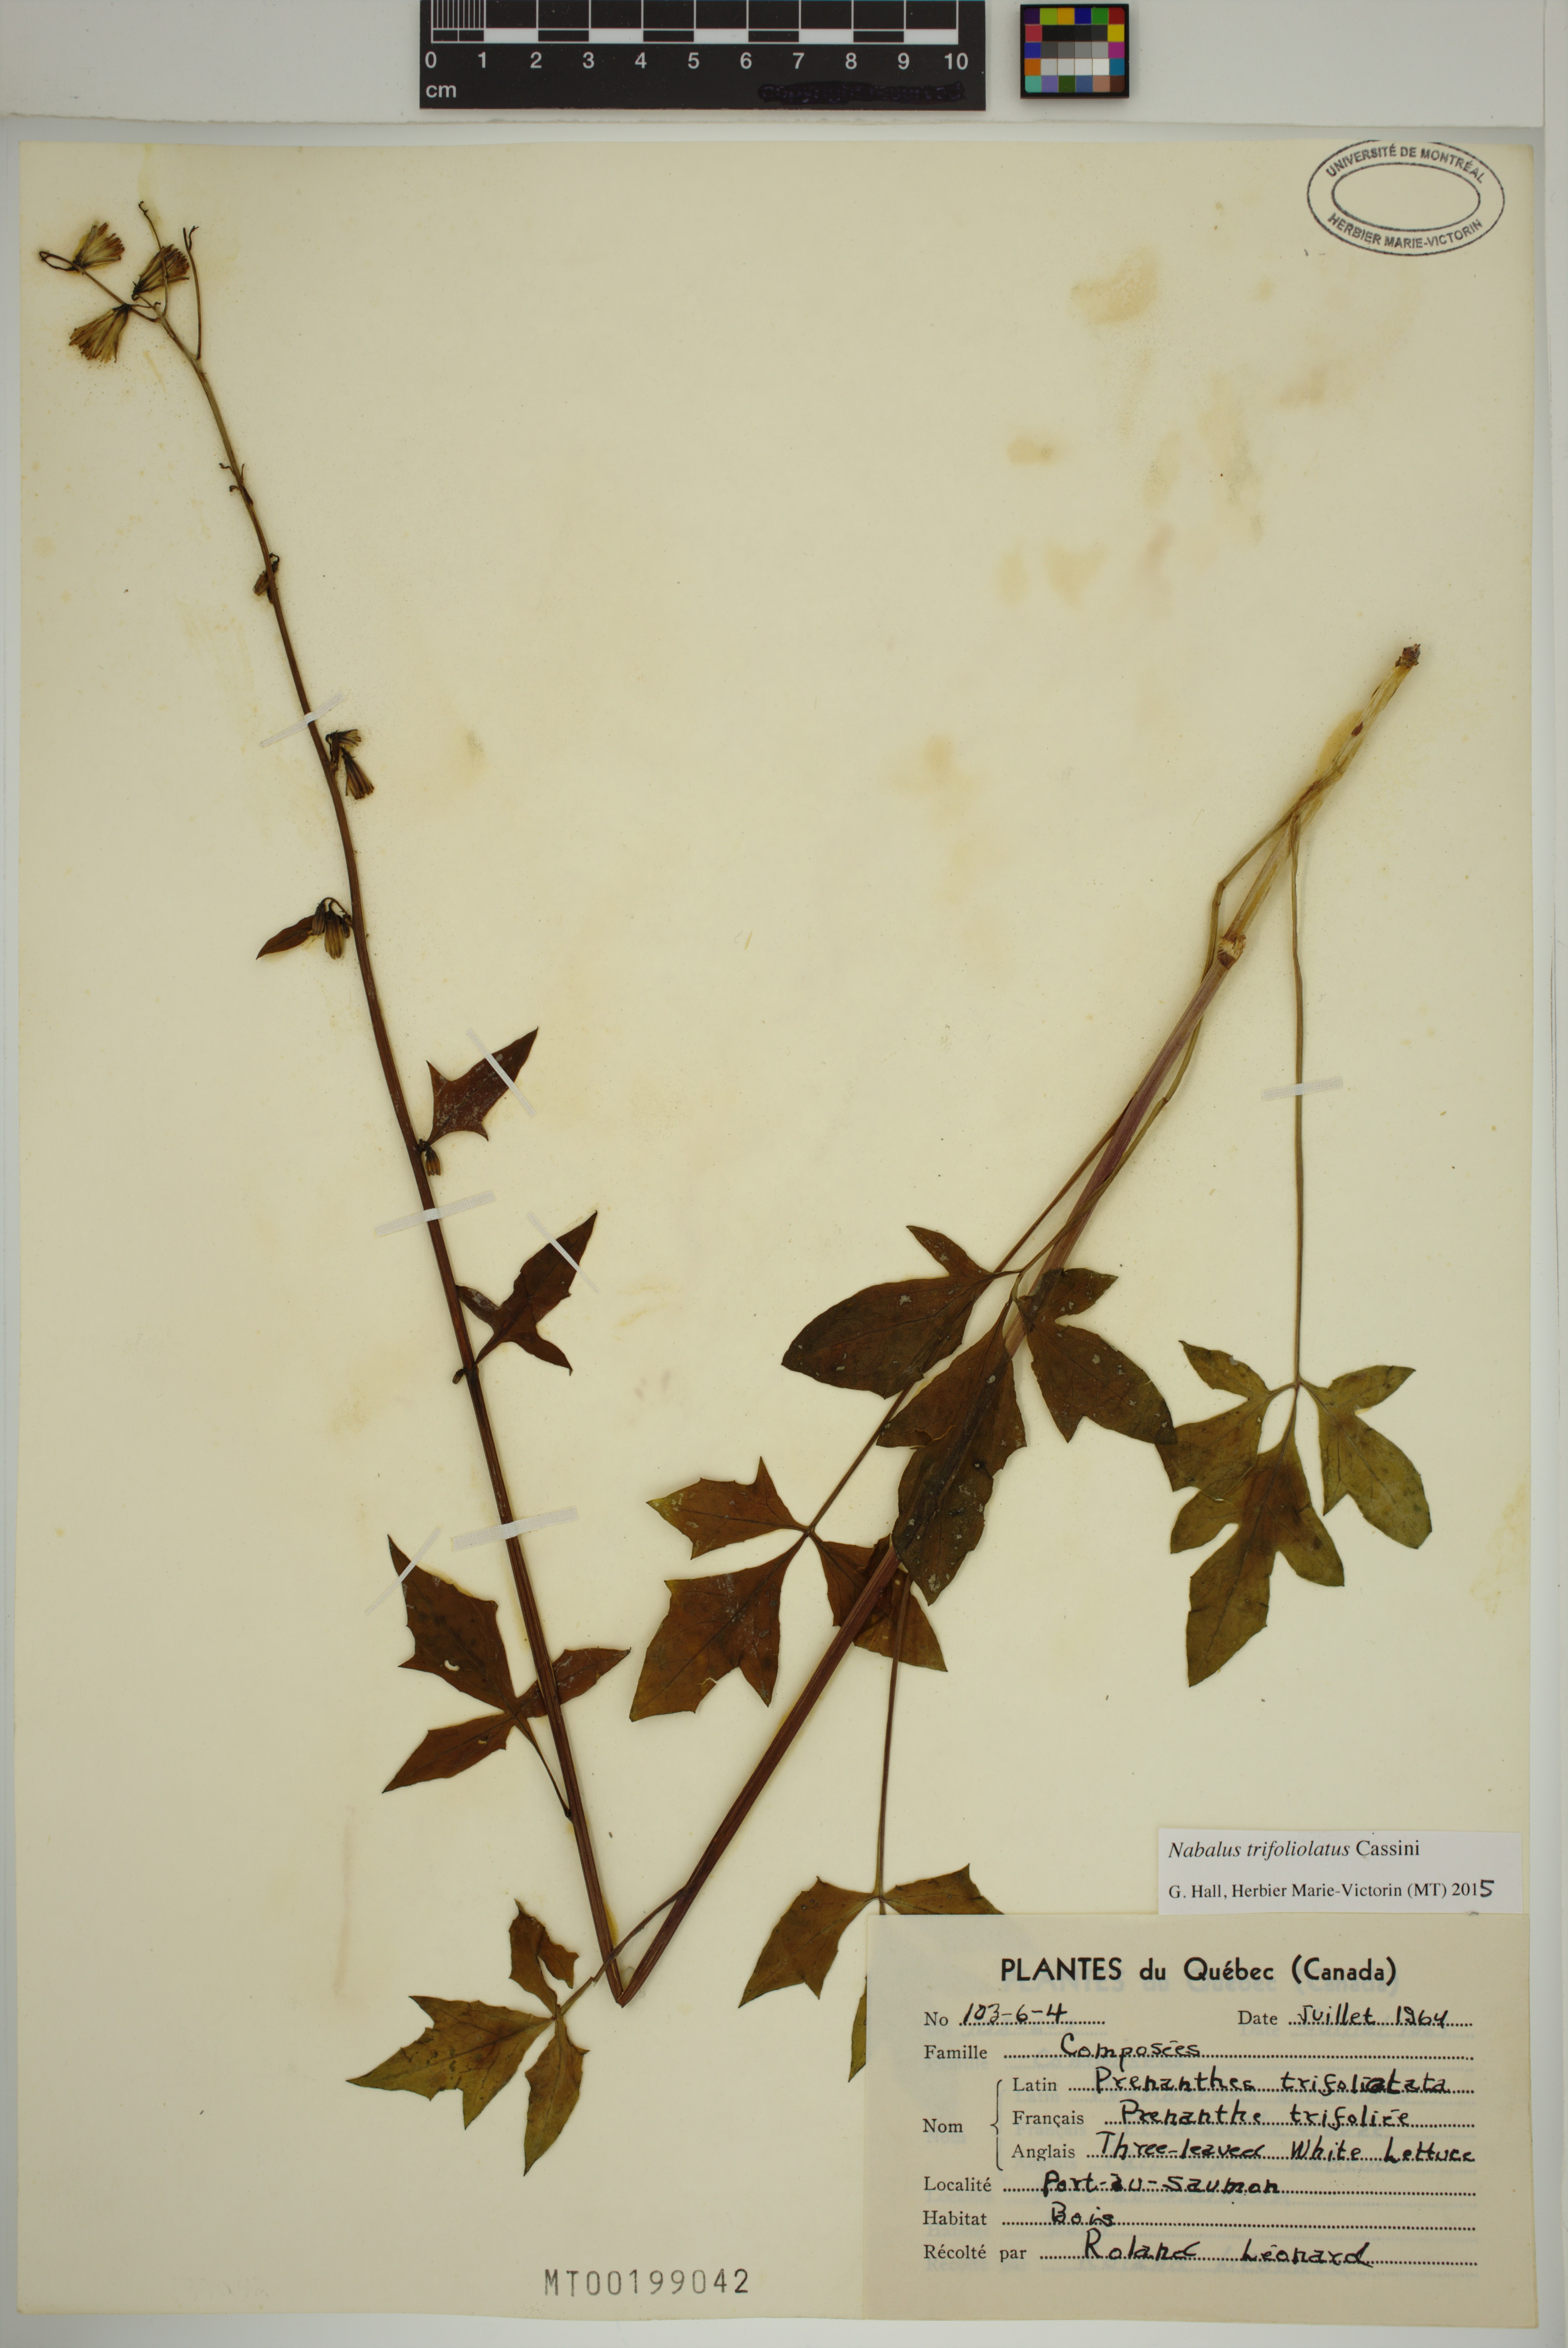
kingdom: Plantae
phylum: Tracheophyta
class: Magnoliopsida
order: Asterales
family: Asteraceae
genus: Nabalus
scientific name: Nabalus trifoliolatus
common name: Gall-of-the-earth
